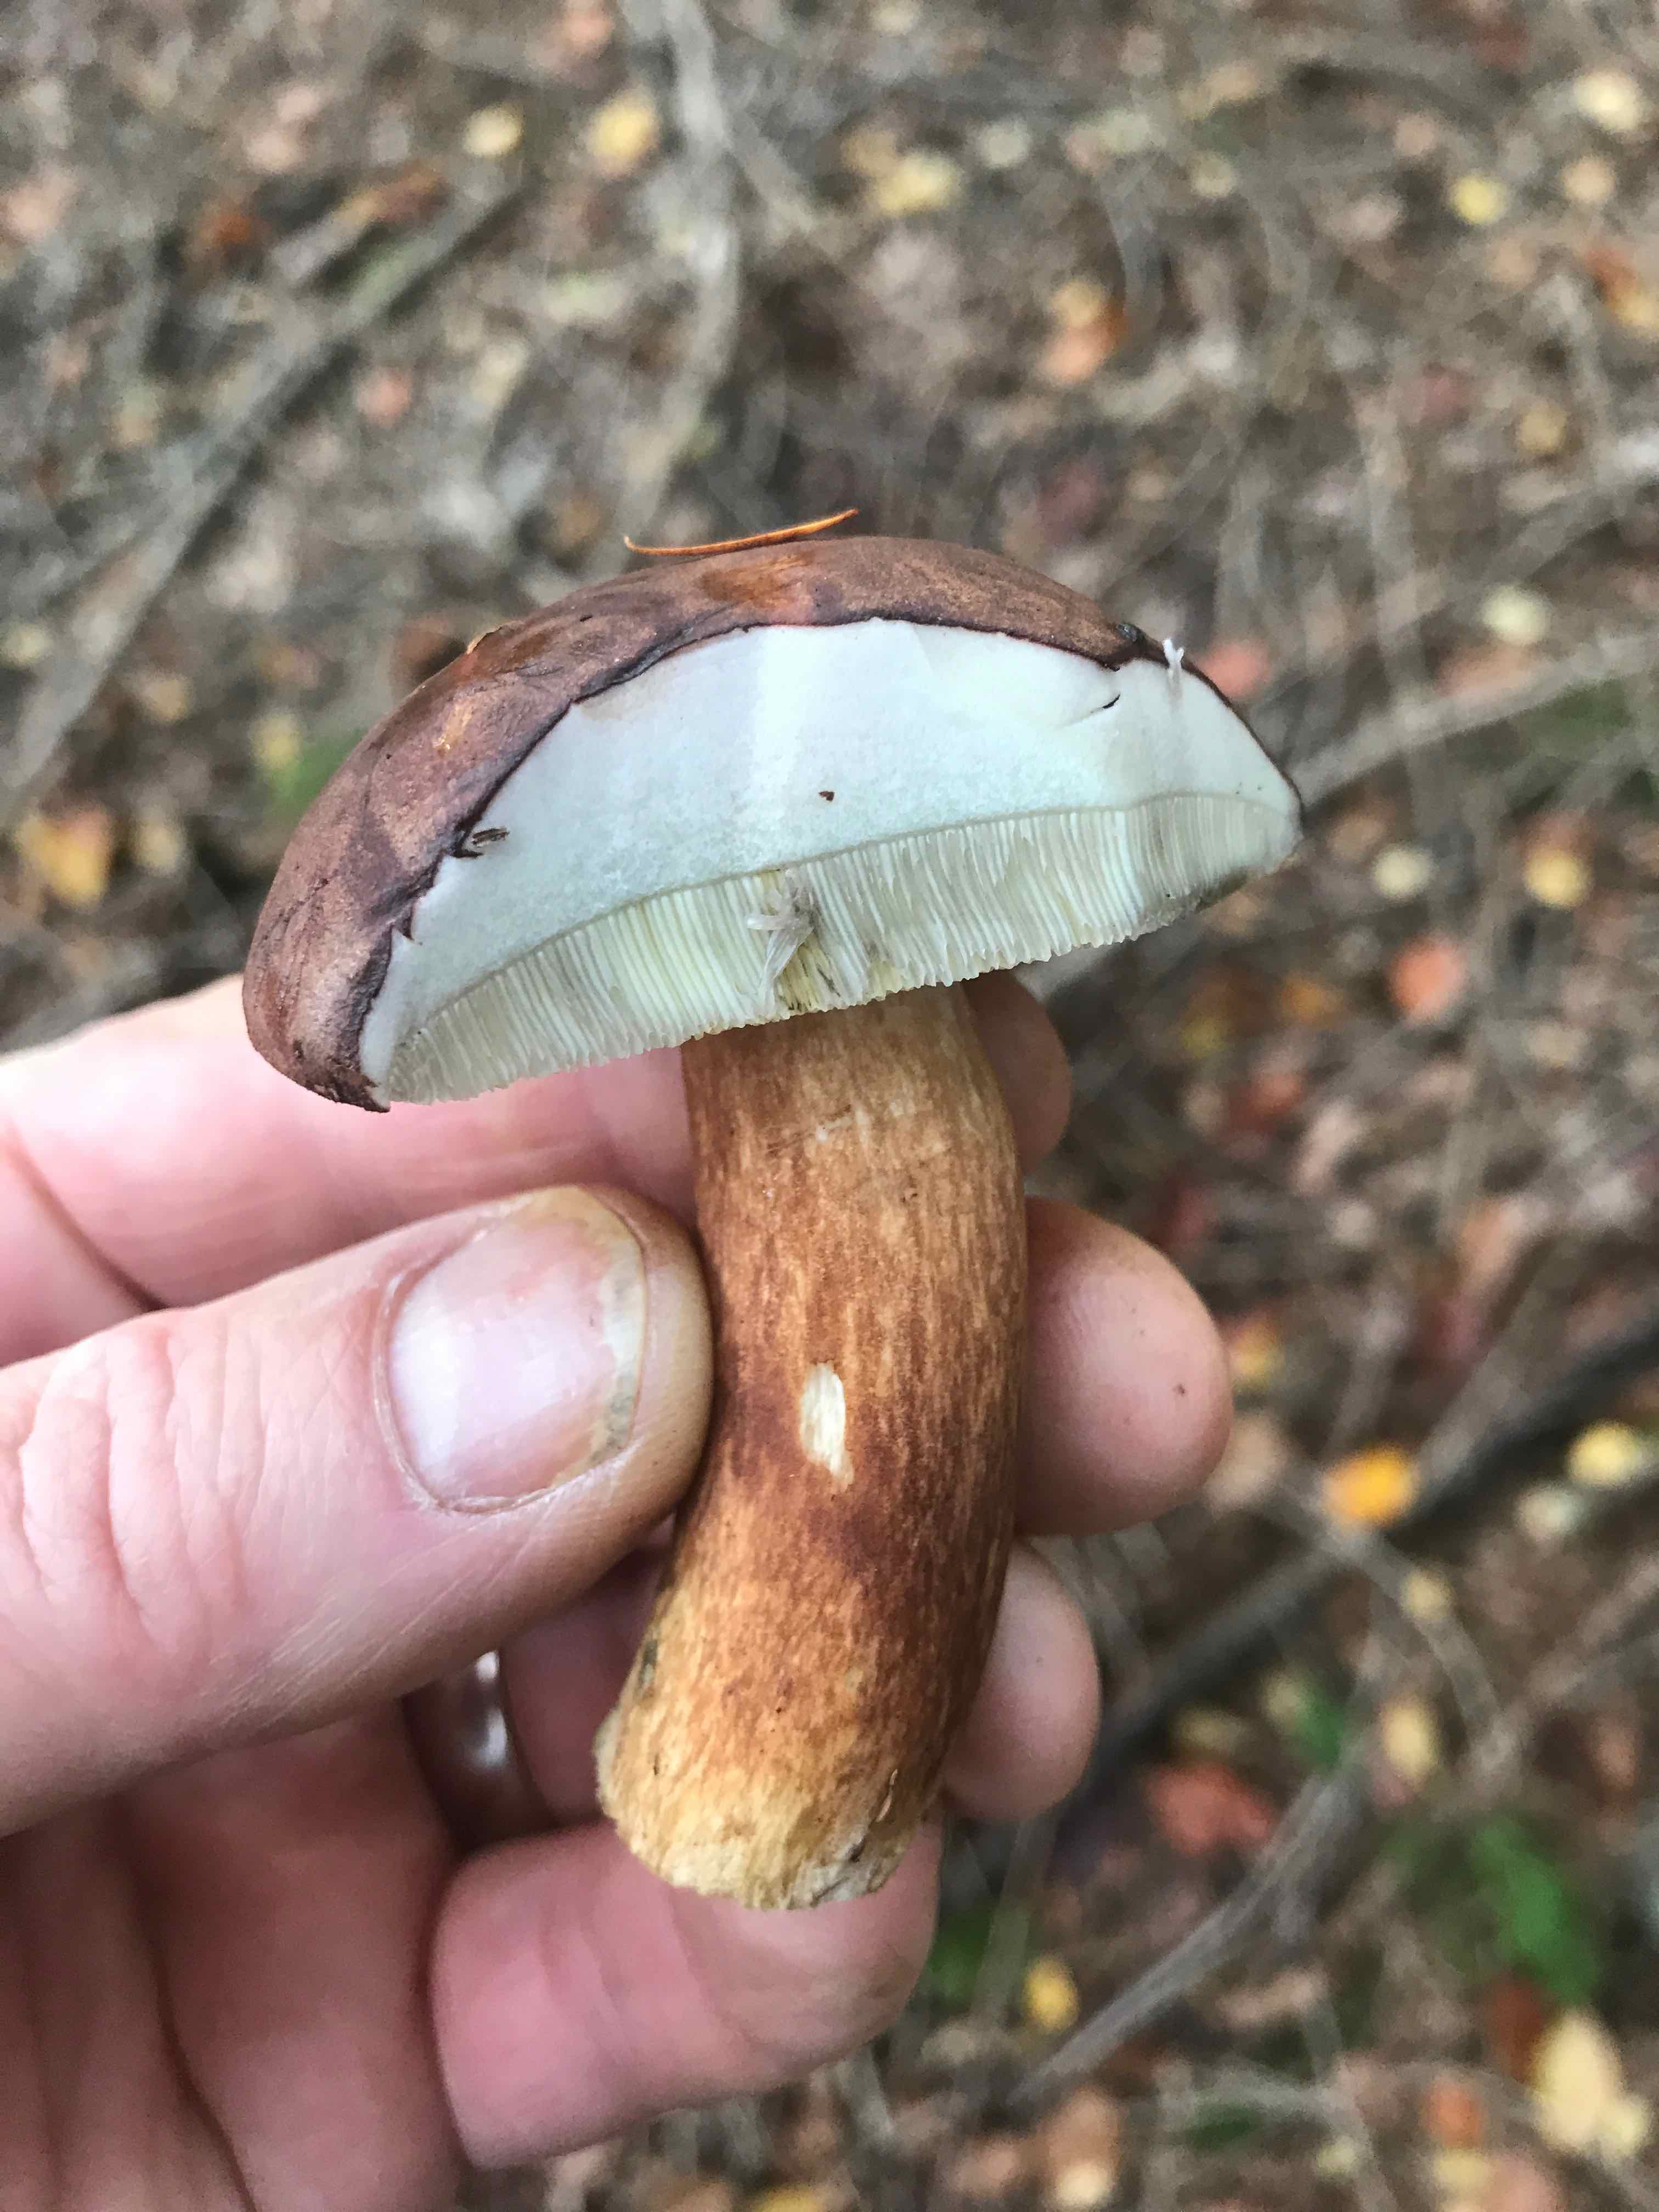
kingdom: Fungi
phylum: Basidiomycota
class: Agaricomycetes
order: Boletales
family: Boletaceae
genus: Imleria
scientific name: Imleria badia
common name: brunstokket rørhat
